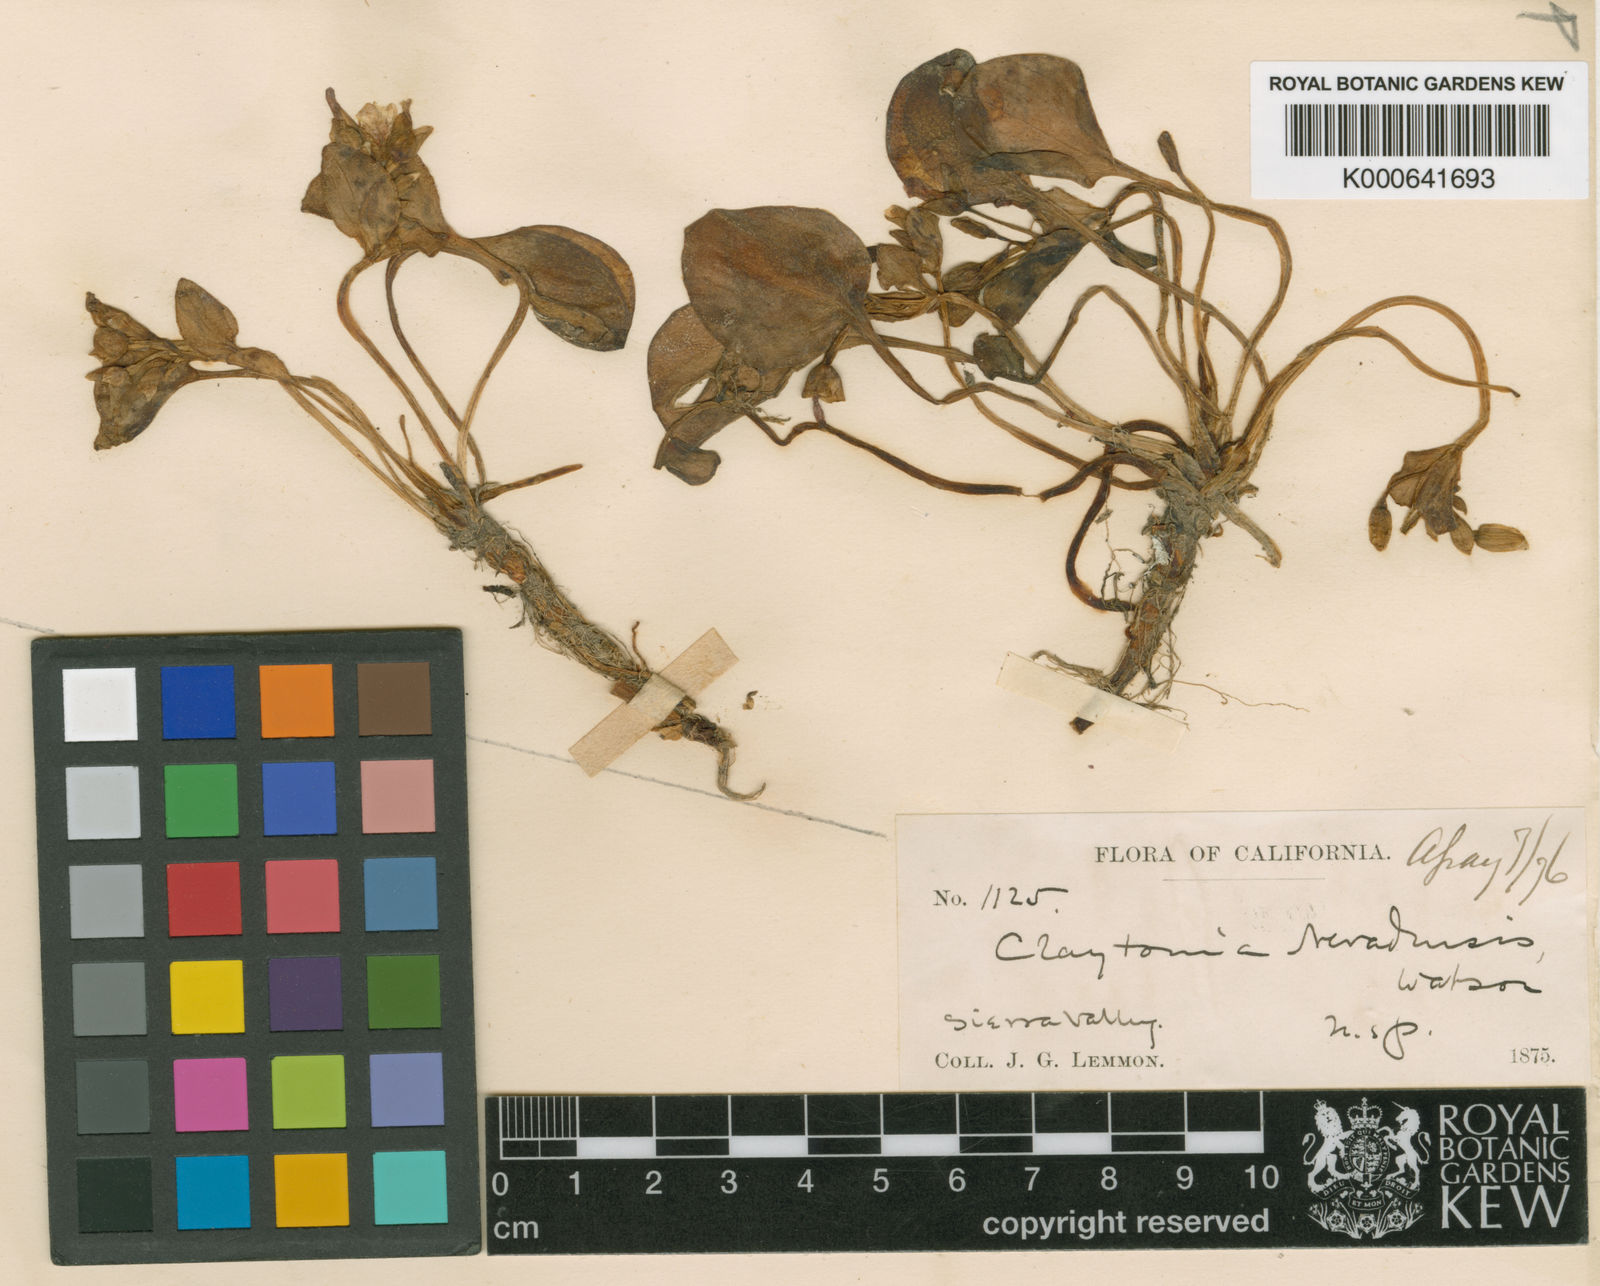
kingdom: Plantae
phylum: Tracheophyta
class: Magnoliopsida
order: Caryophyllales
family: Montiaceae
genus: Claytonia
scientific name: Claytonia sibirica
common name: Pink purslane
